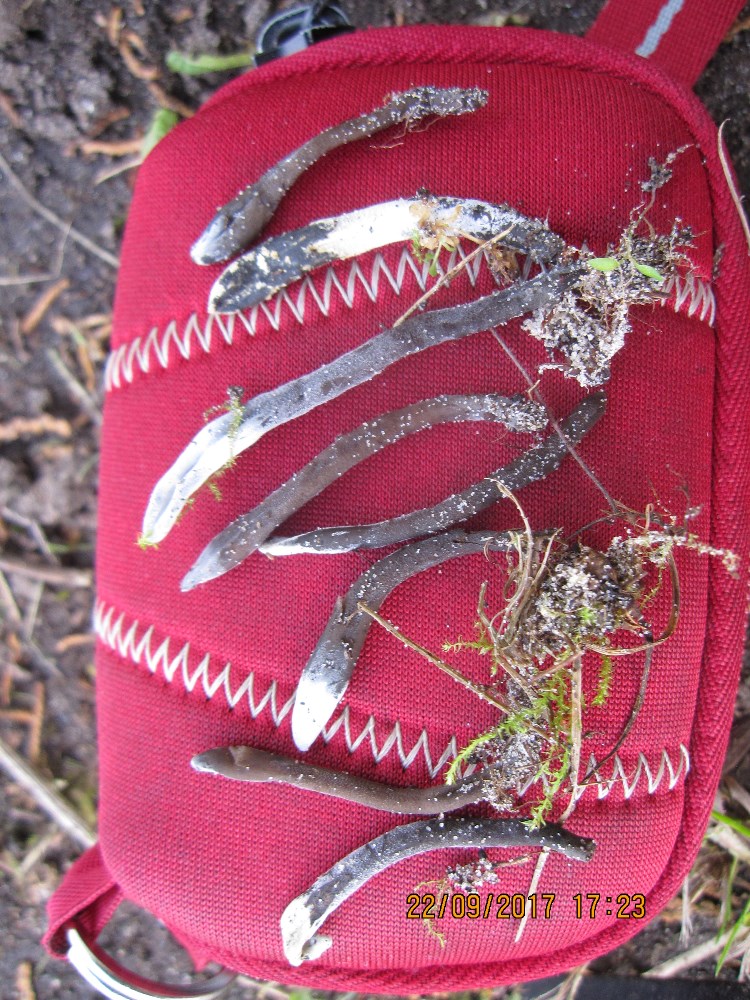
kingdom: Fungi
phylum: Ascomycota
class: Sordariomycetes
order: Hypocreales
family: Hypocreaceae
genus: Hypomyces
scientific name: Hypomyces papulasporae
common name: jordtunge-snylteskorpe
